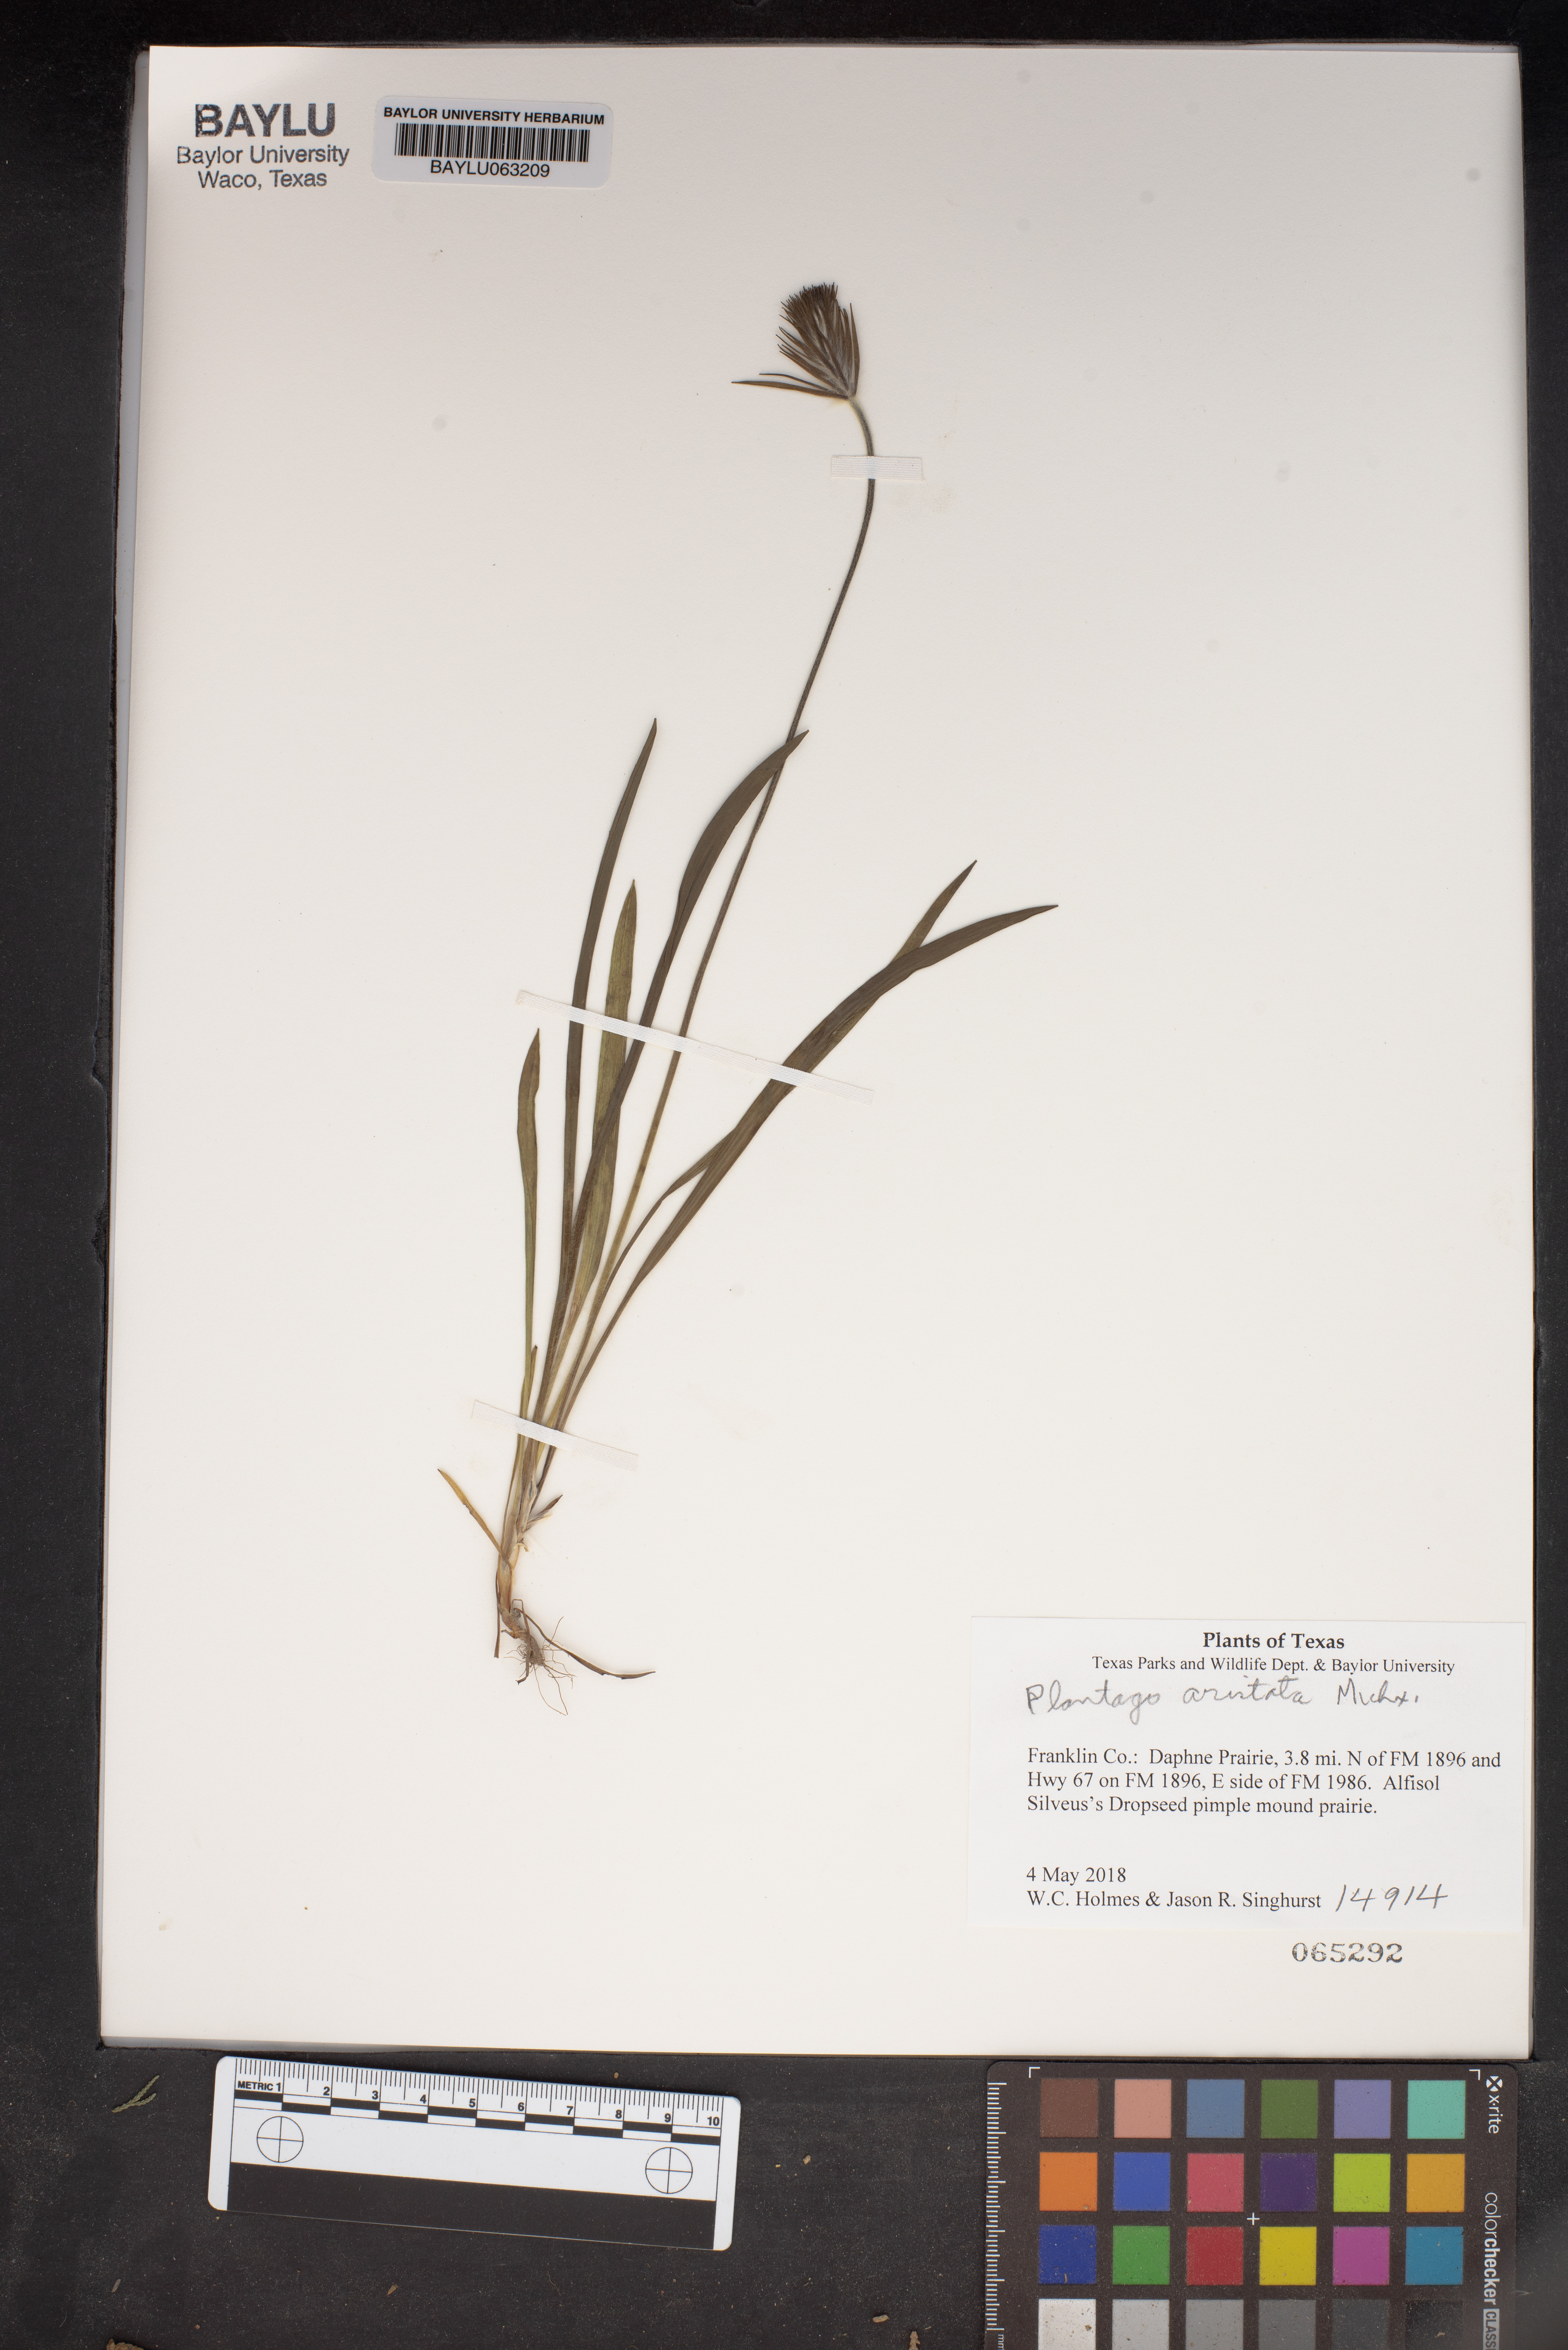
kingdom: Plantae
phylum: Tracheophyta
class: Magnoliopsida
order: Lamiales
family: Plantaginaceae
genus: Plantago
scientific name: Plantago aristata
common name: Bracted plantain
